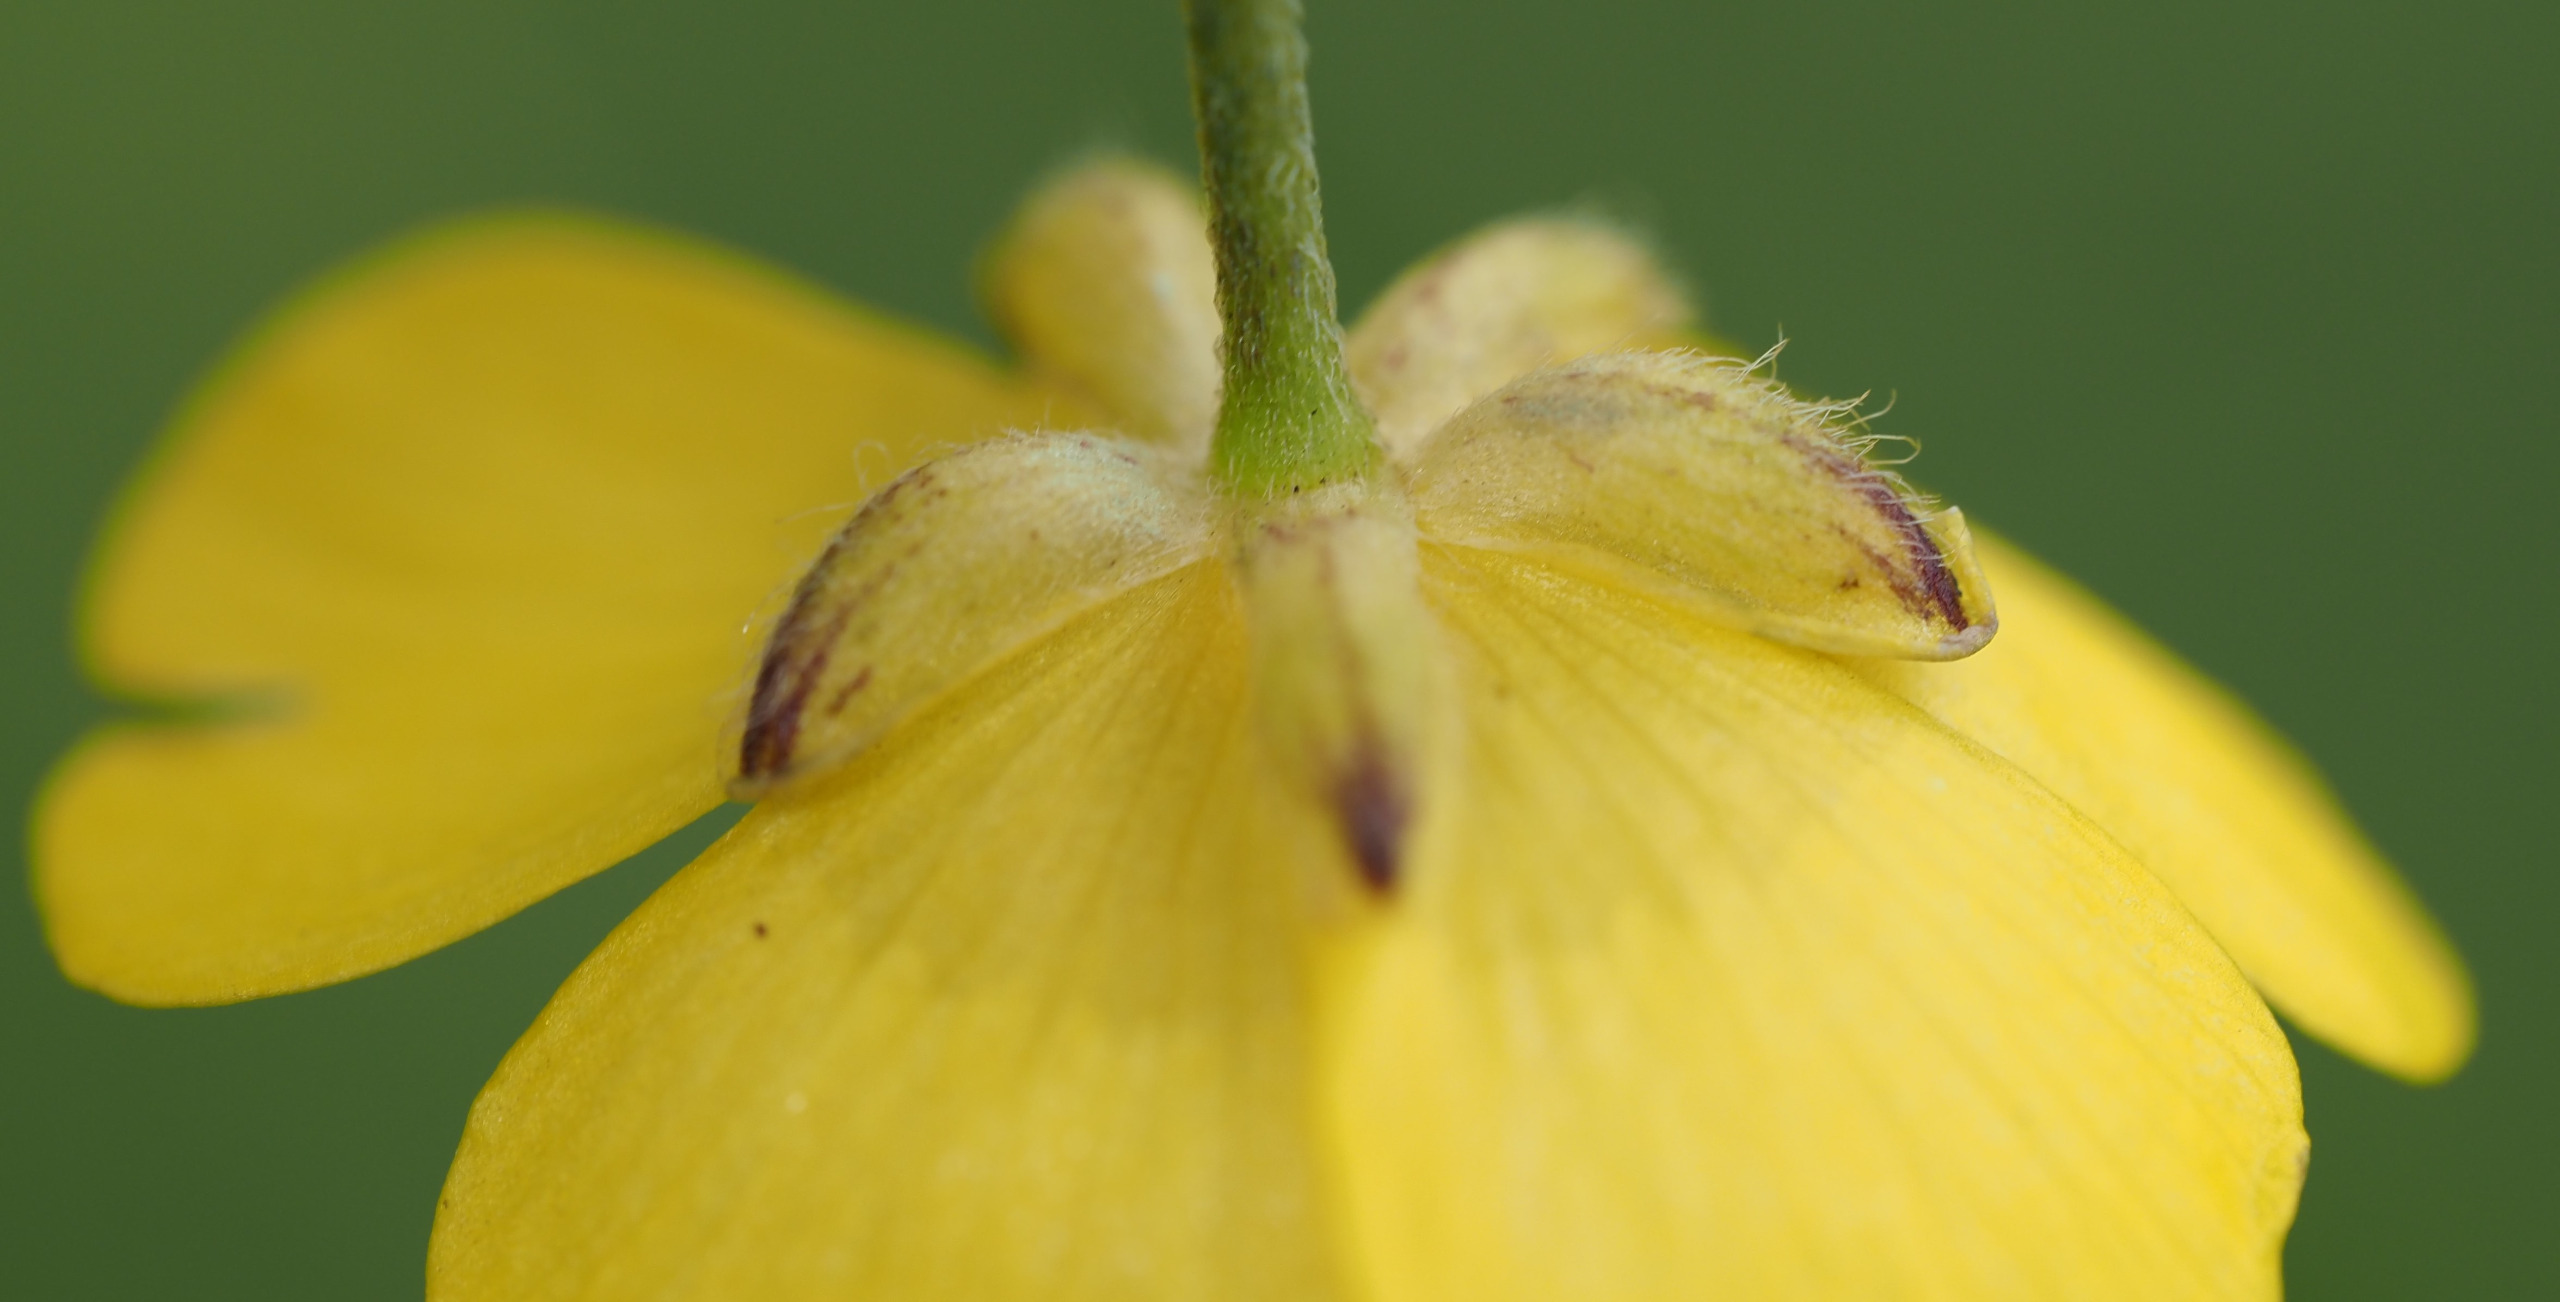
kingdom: Plantae
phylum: Tracheophyta
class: Magnoliopsida
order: Ranunculales
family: Ranunculaceae
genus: Ranunculus
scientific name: Ranunculus acris
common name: Bidende ranunkel
